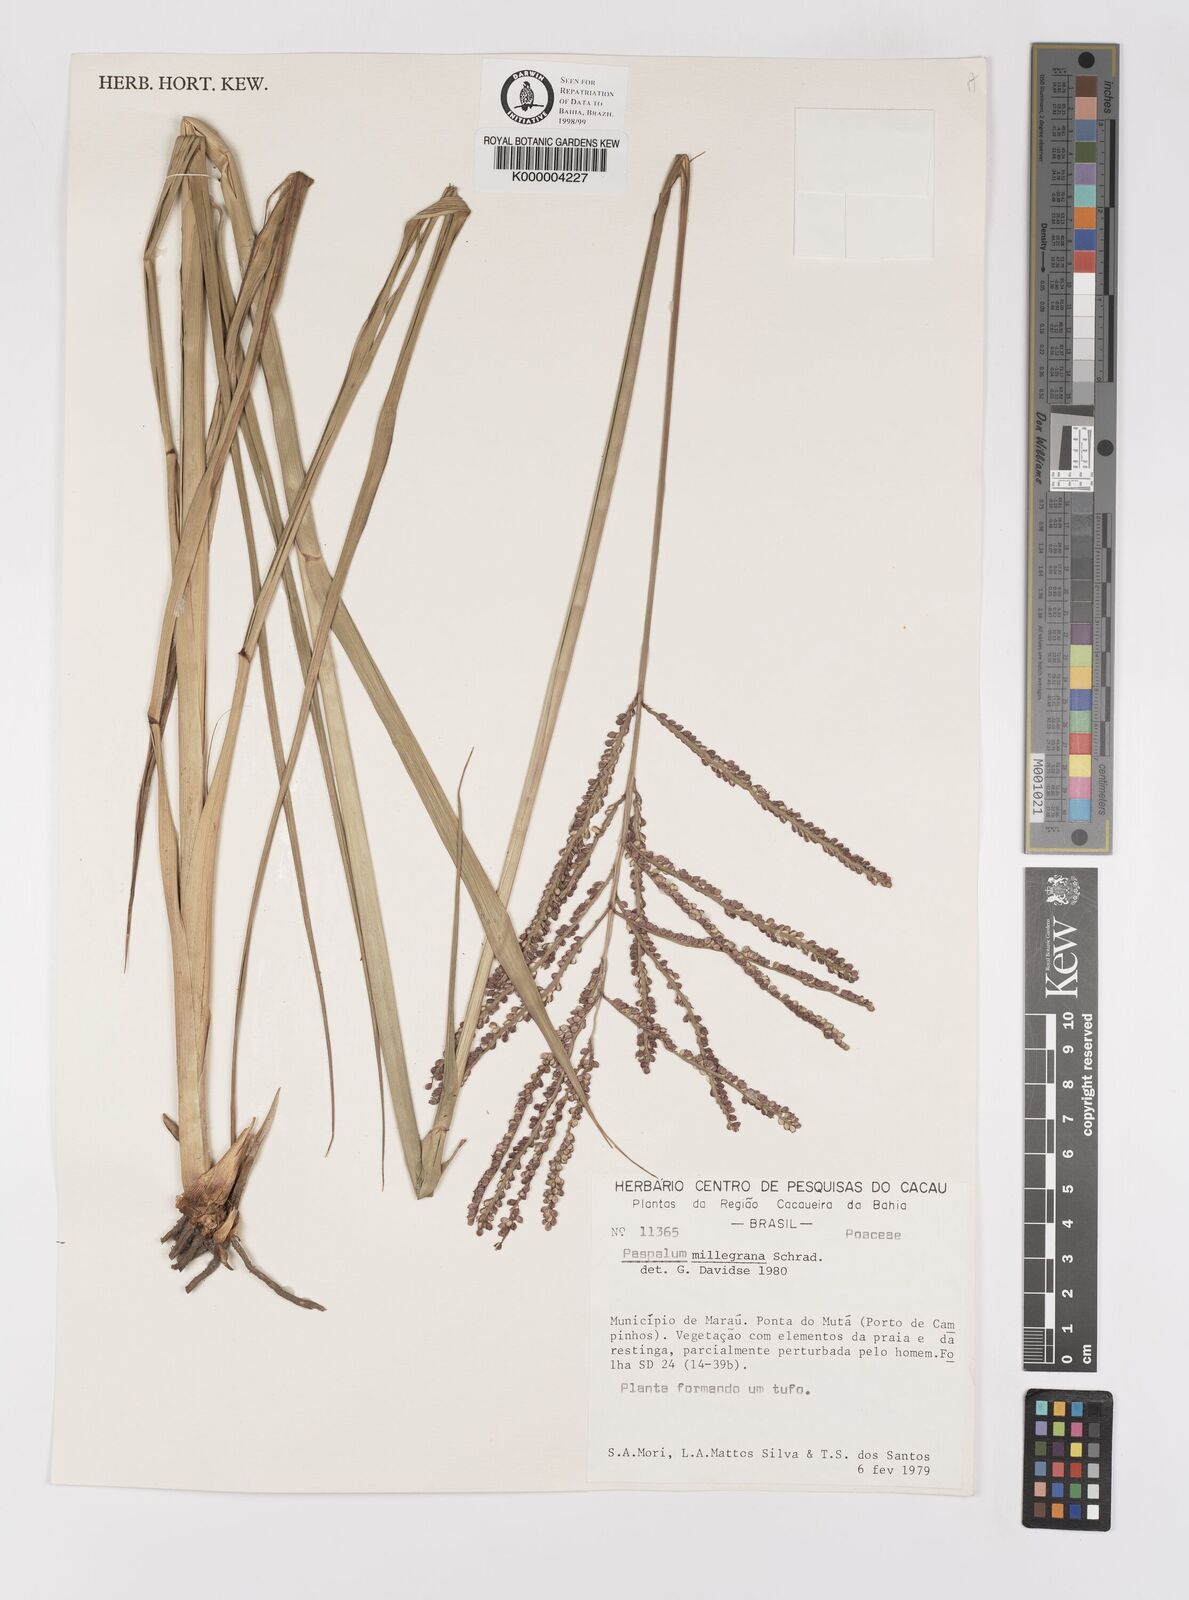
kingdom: Plantae
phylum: Tracheophyta
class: Liliopsida
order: Poales
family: Poaceae
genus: Paspalum
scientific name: Paspalum millegranum
